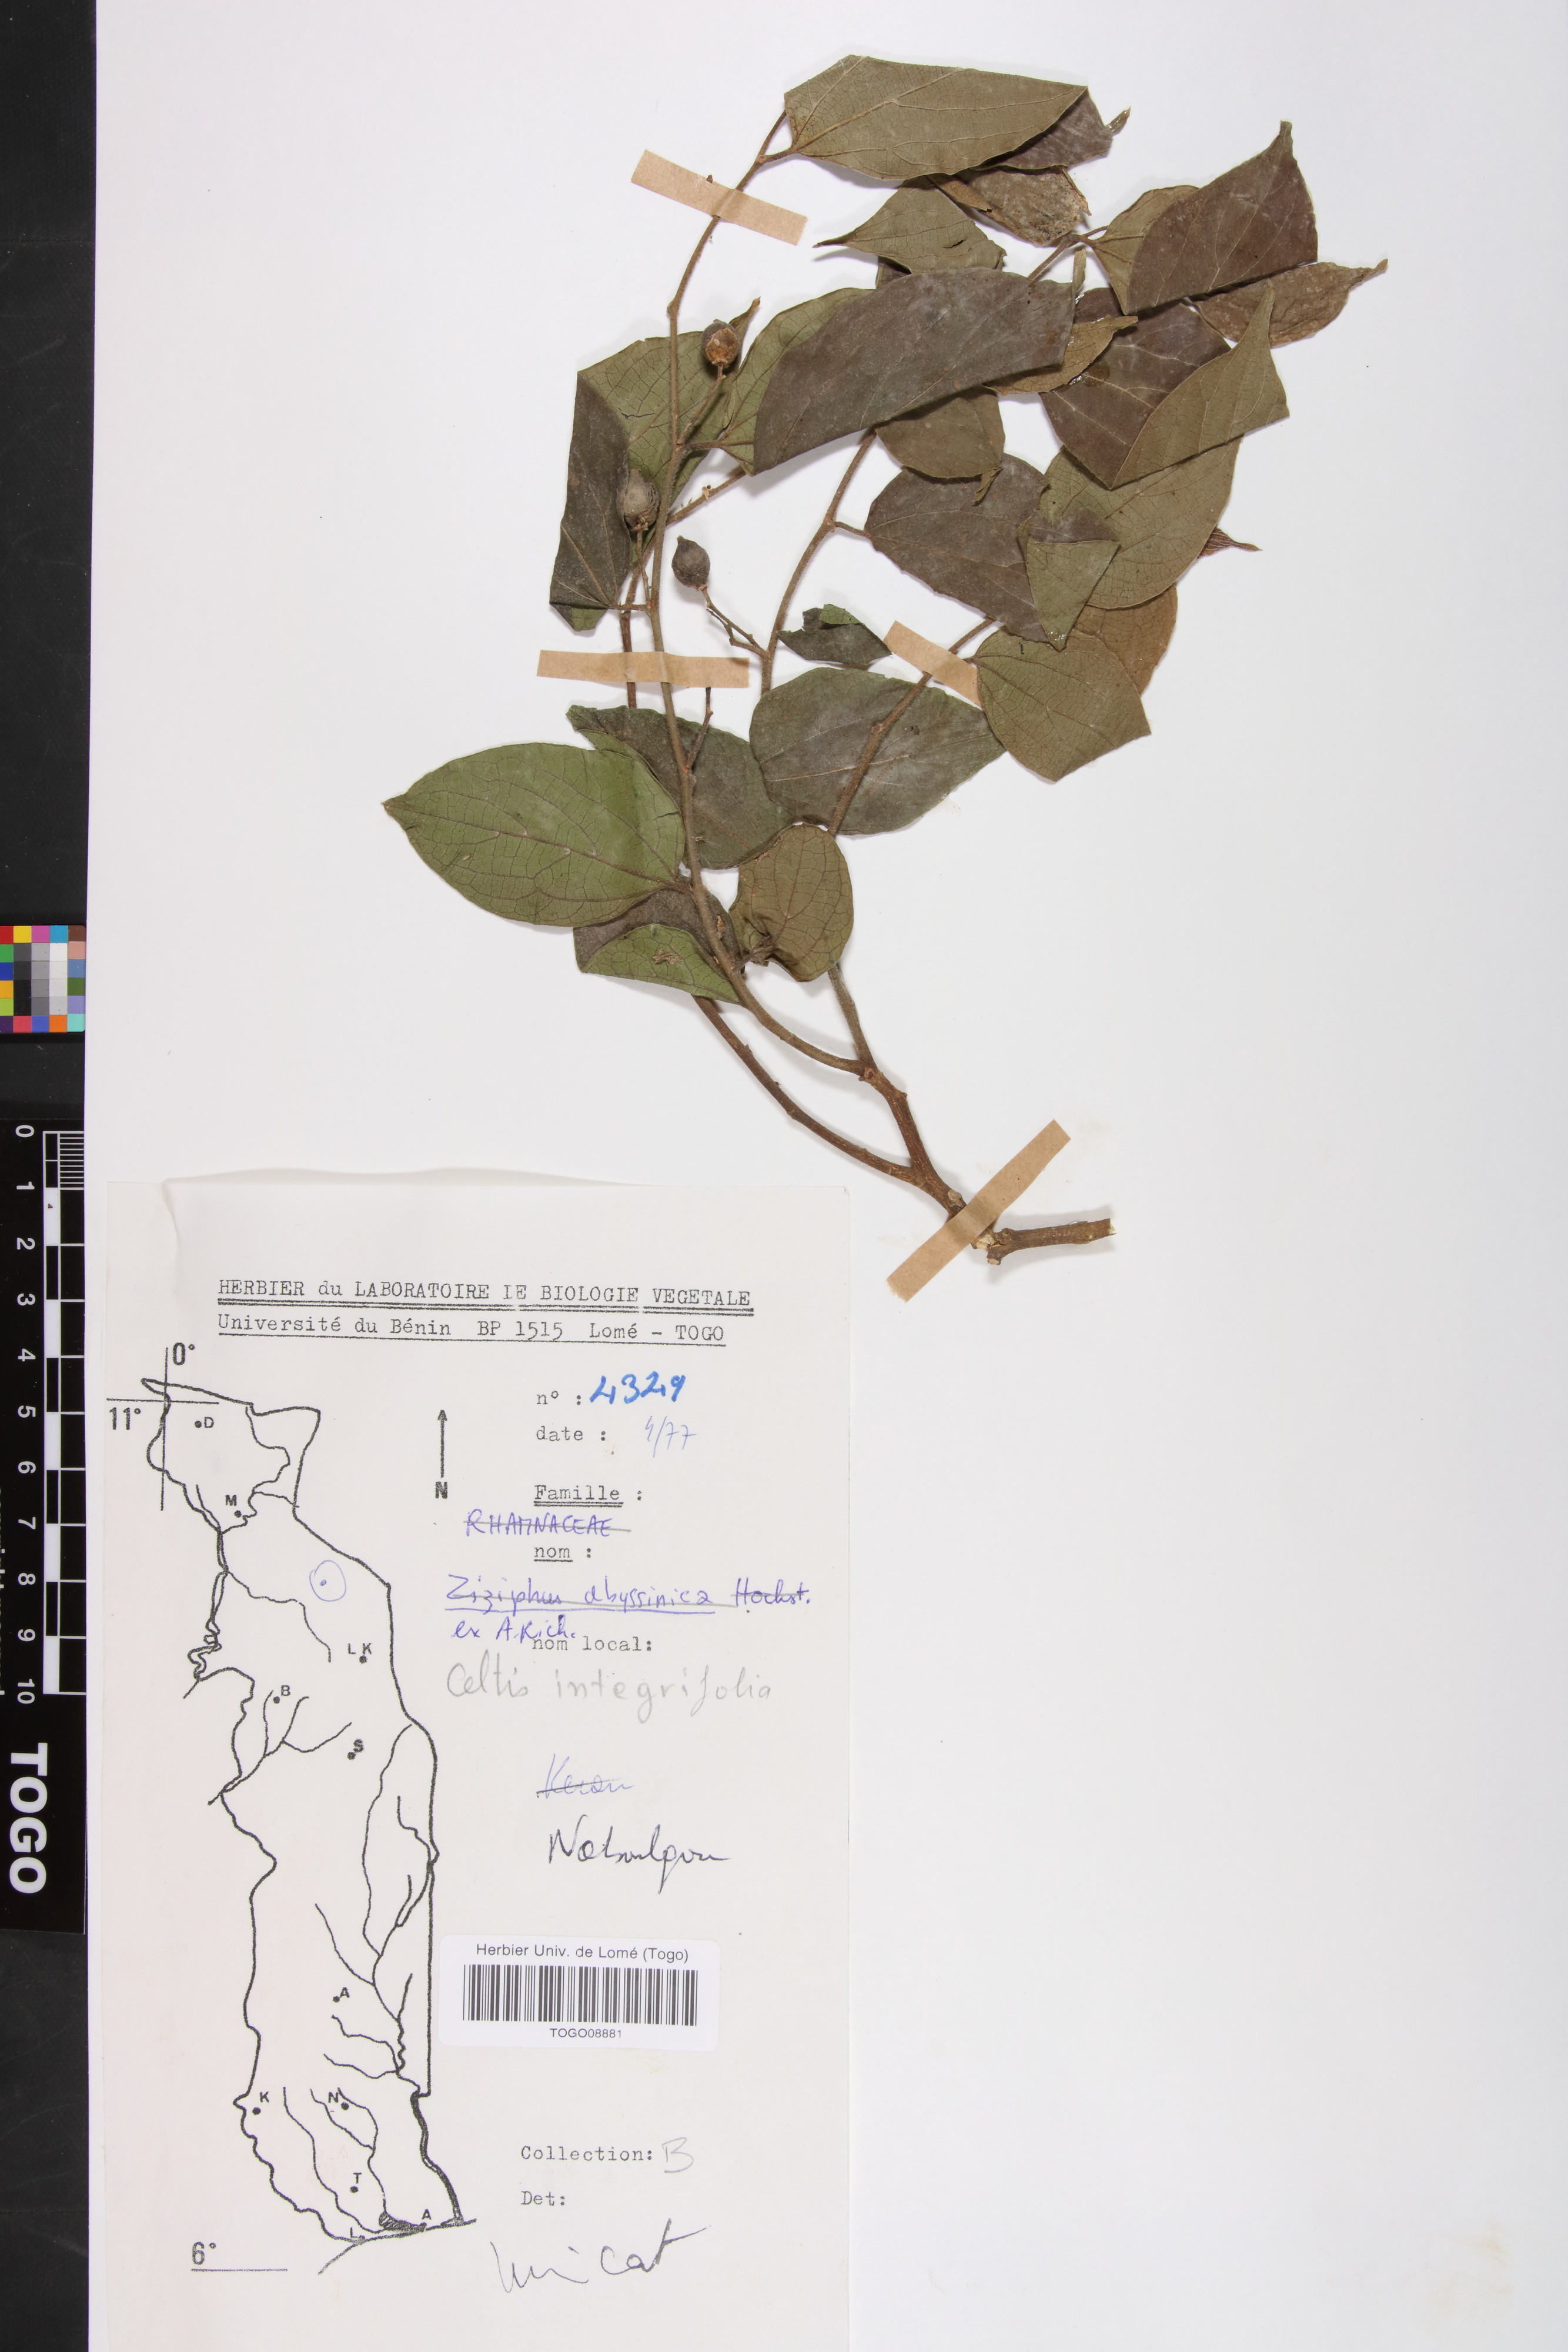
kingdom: Plantae
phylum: Tracheophyta
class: Magnoliopsida
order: Rosales
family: Cannabaceae
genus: Celtis
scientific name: Celtis toka
